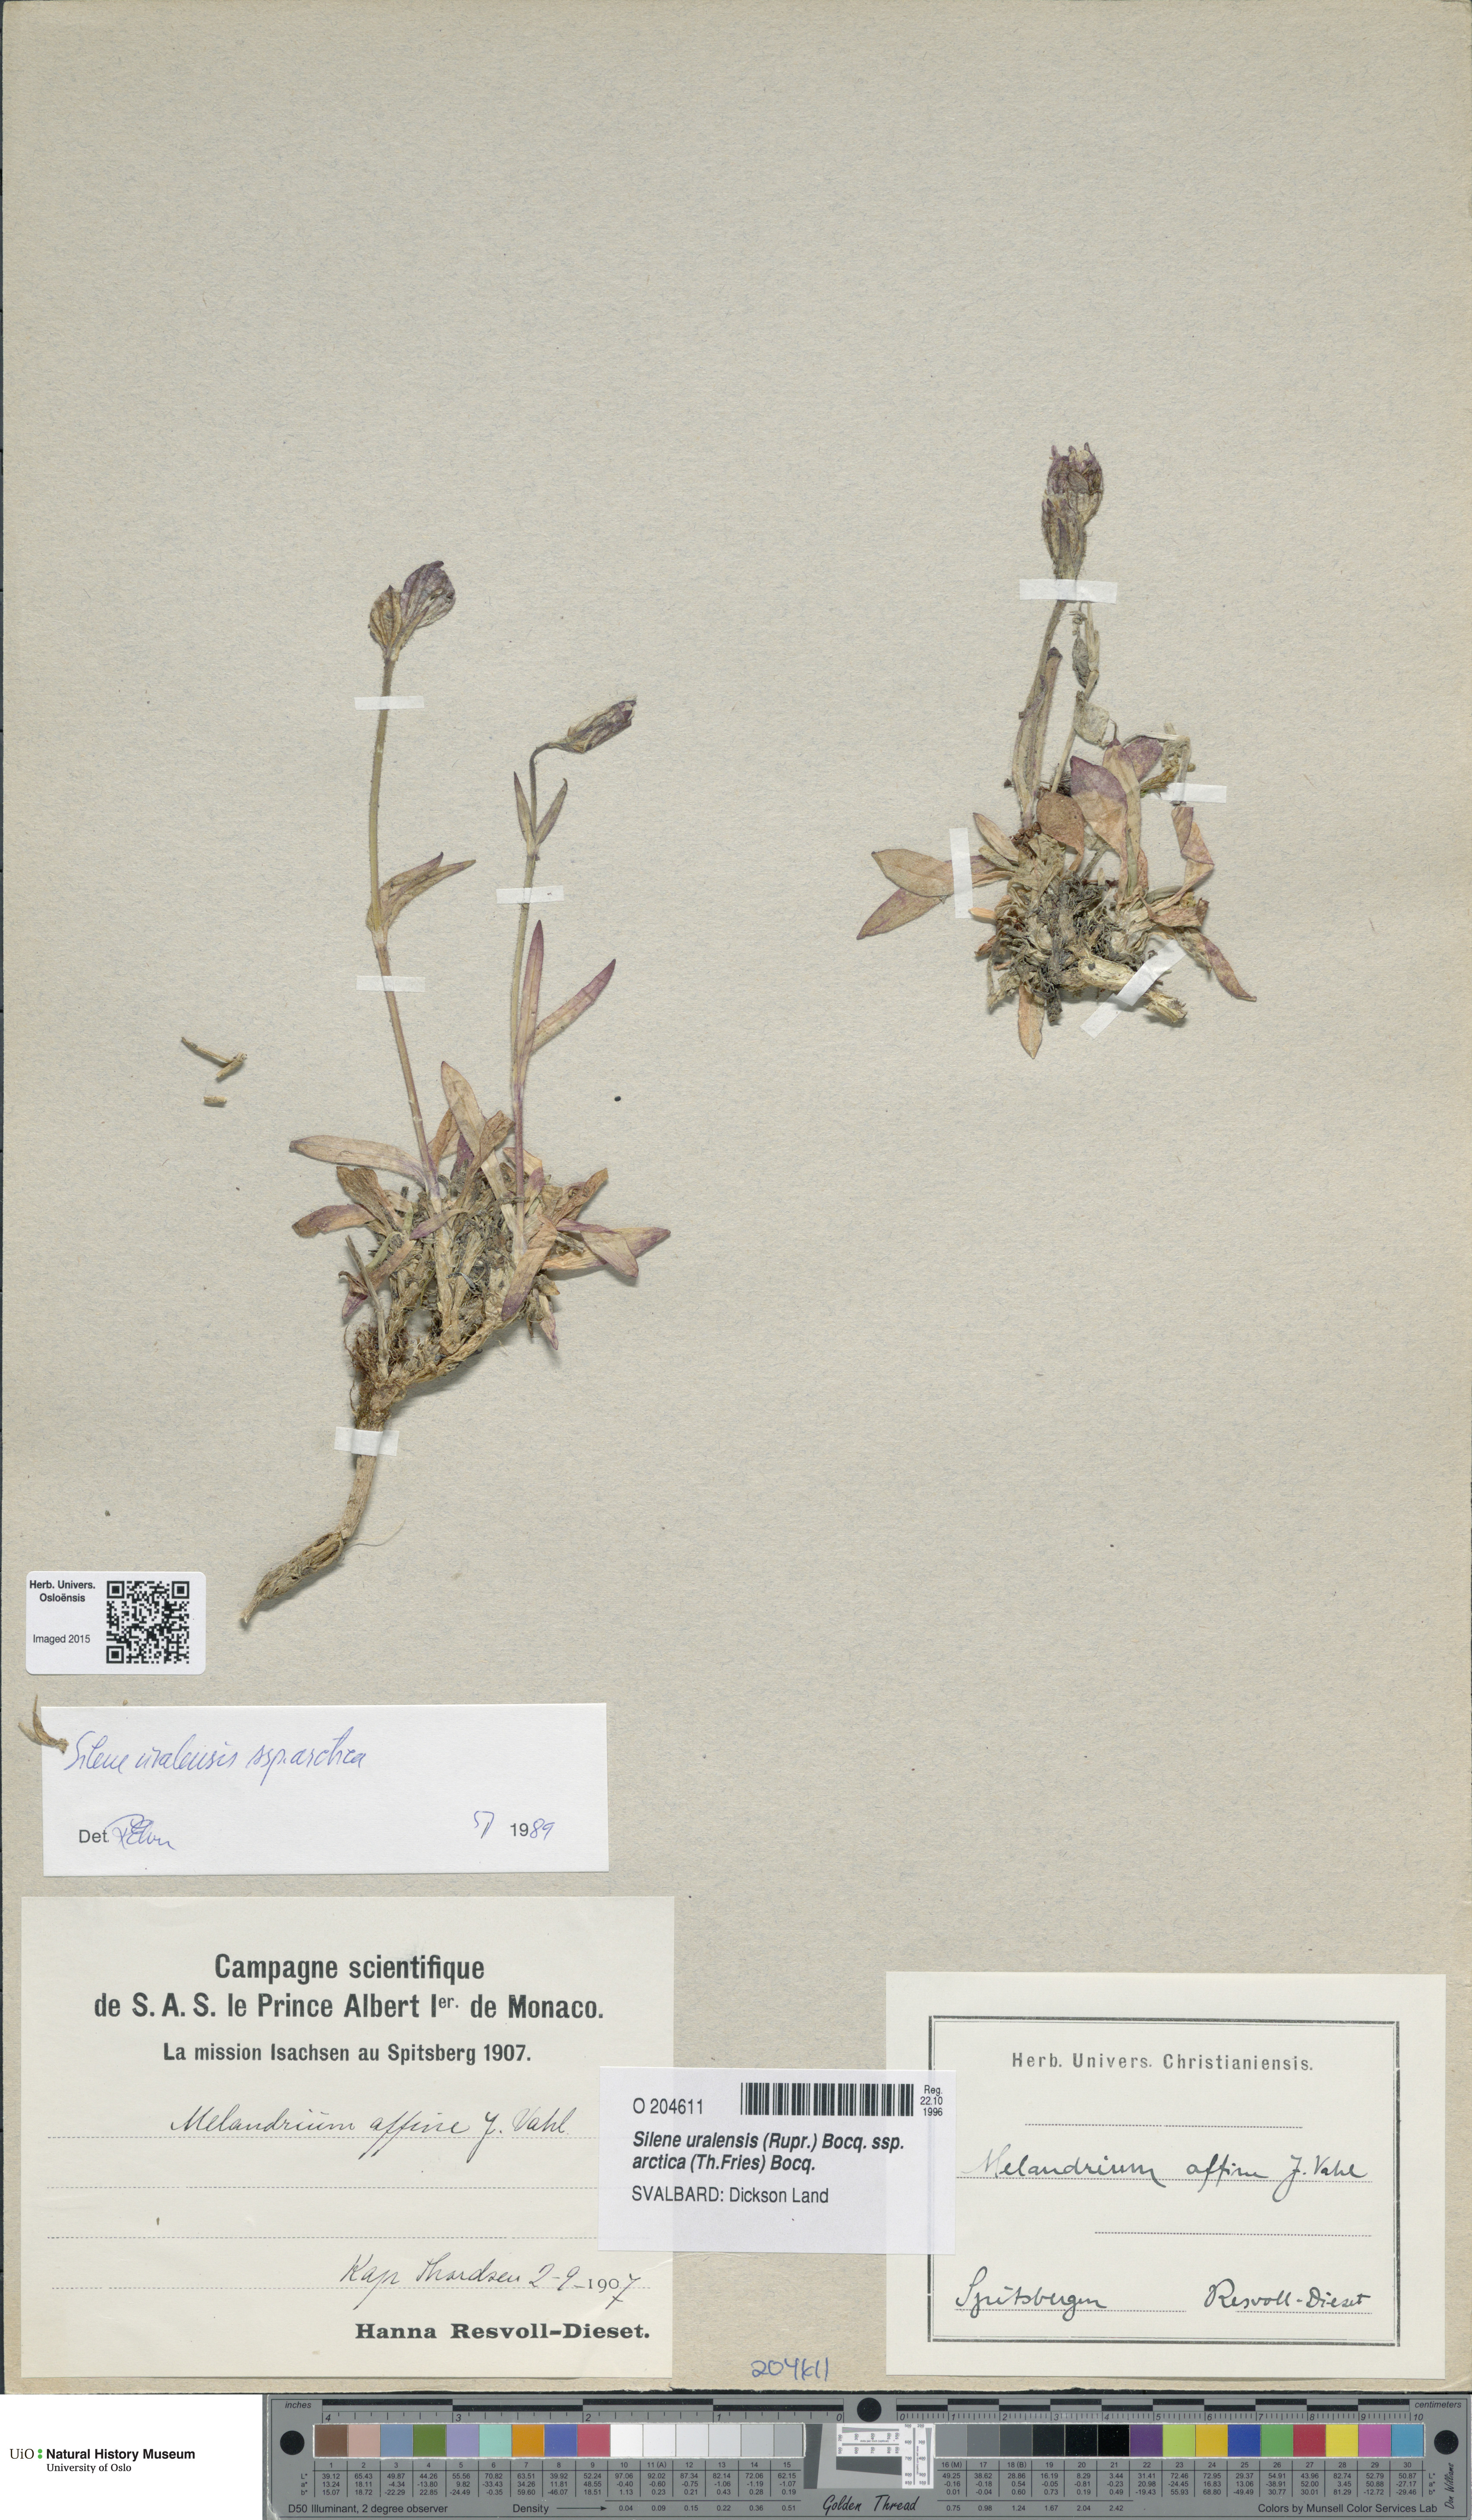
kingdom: Plantae
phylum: Tracheophyta
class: Magnoliopsida
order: Caryophyllales
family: Caryophyllaceae
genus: Silene
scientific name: Silene uralensis
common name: Nodding campion
